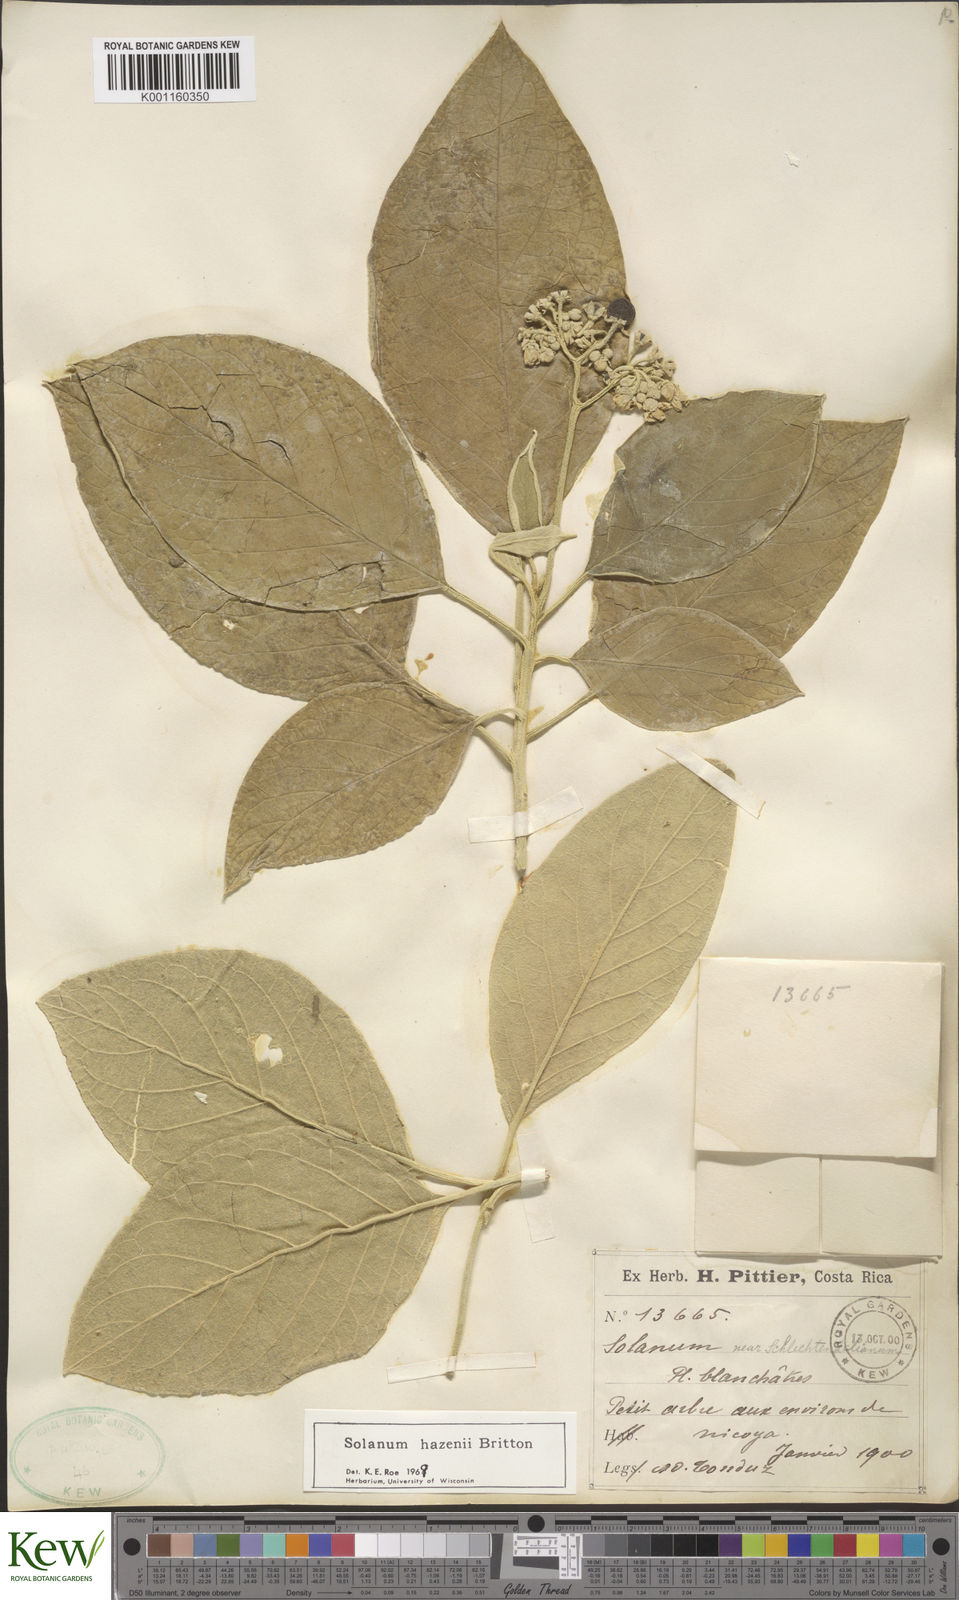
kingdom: Plantae
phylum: Tracheophyta
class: Magnoliopsida
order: Solanales
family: Solanaceae
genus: Solanum
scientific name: Solanum hazenii
